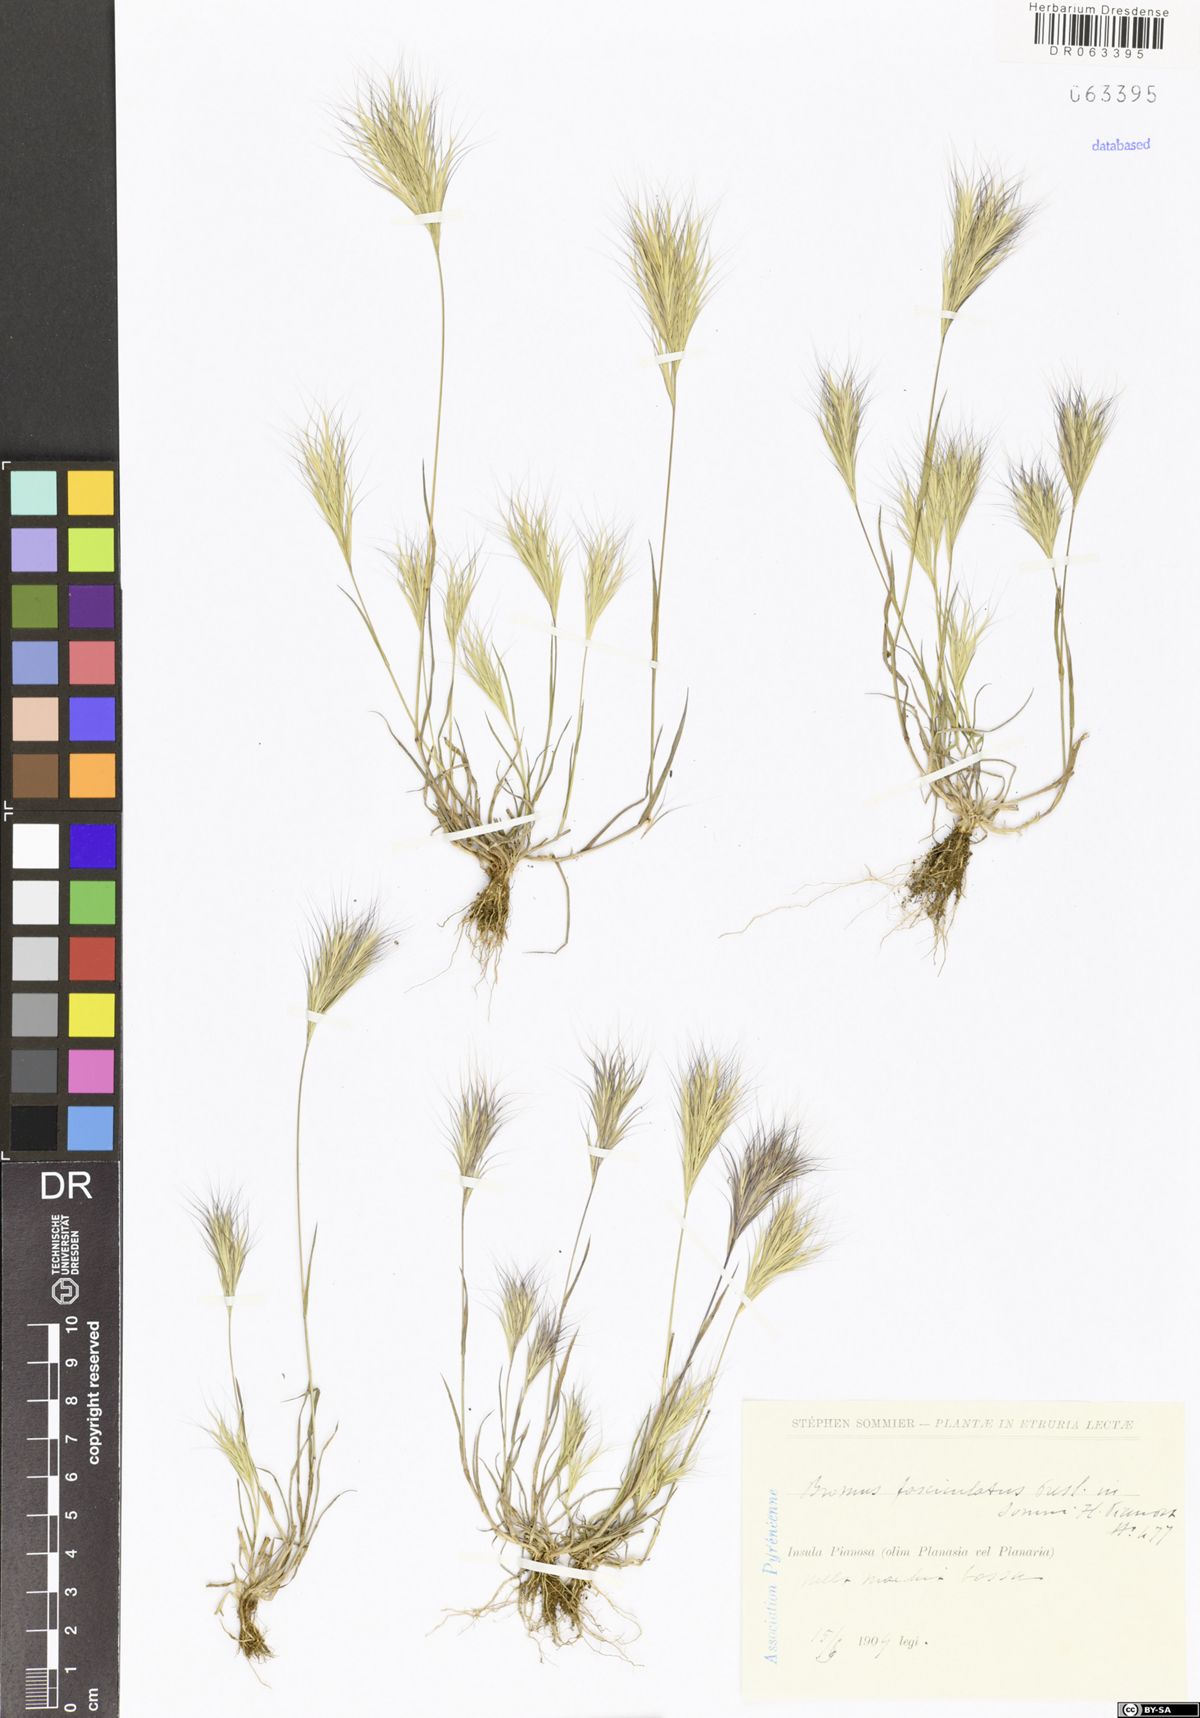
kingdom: Plantae
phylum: Tracheophyta
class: Liliopsida
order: Poales
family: Poaceae
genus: Bromus
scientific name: Bromus fasciculatus
